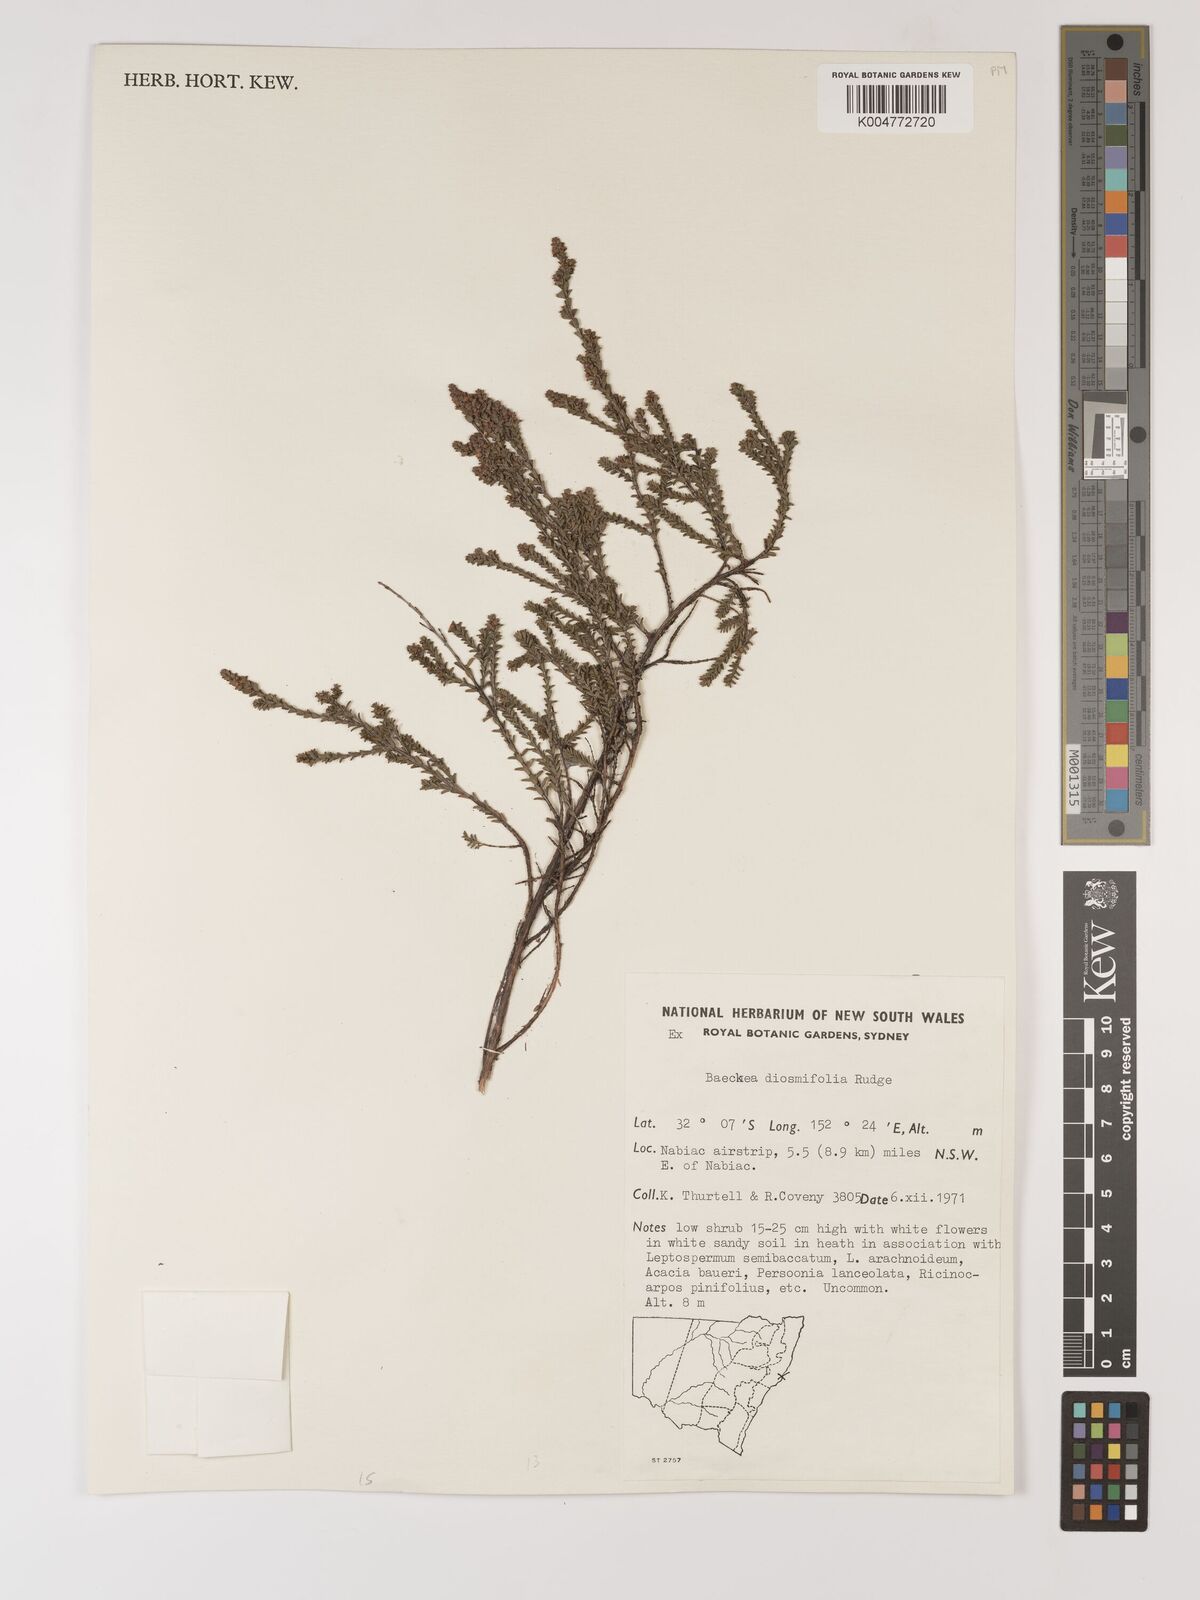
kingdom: Plantae
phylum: Tracheophyta
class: Magnoliopsida
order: Myrtales
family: Myrtaceae
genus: Baeckea
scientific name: Baeckea diosmifolia
